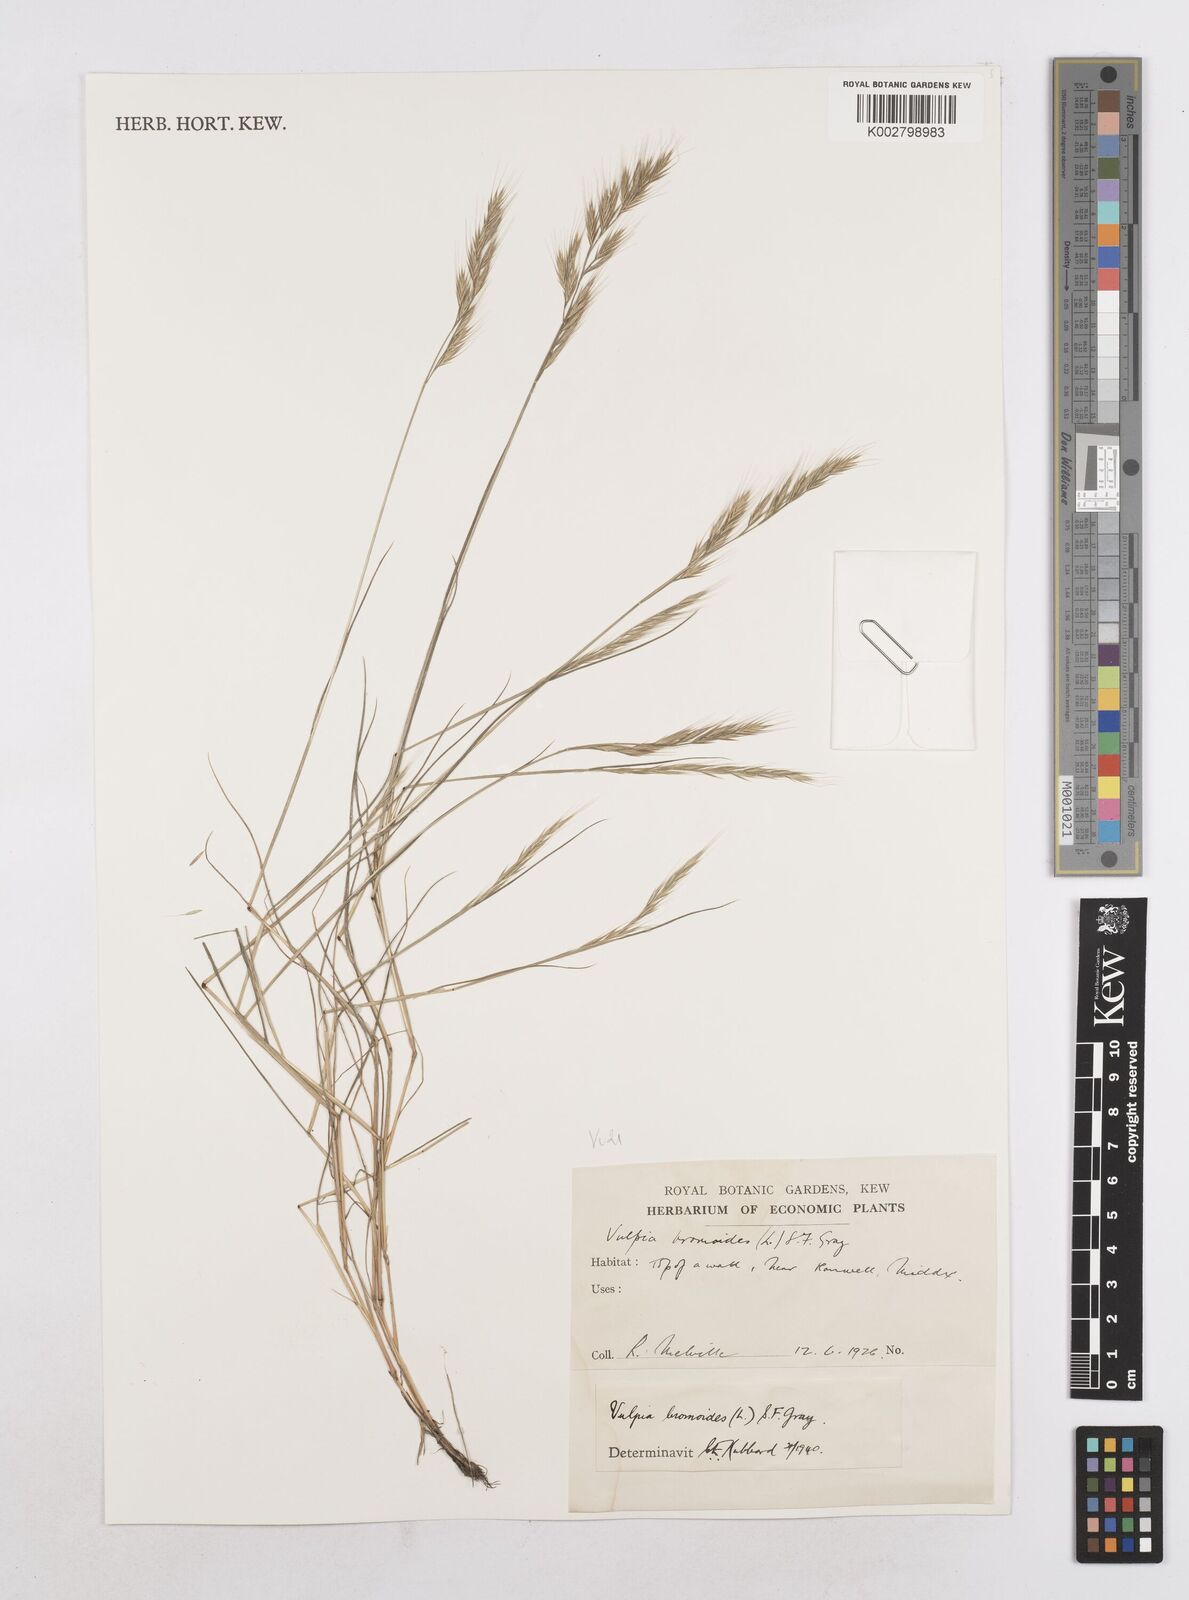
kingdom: Plantae
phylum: Tracheophyta
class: Liliopsida
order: Poales
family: Poaceae
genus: Festuca
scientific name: Festuca bromoides
